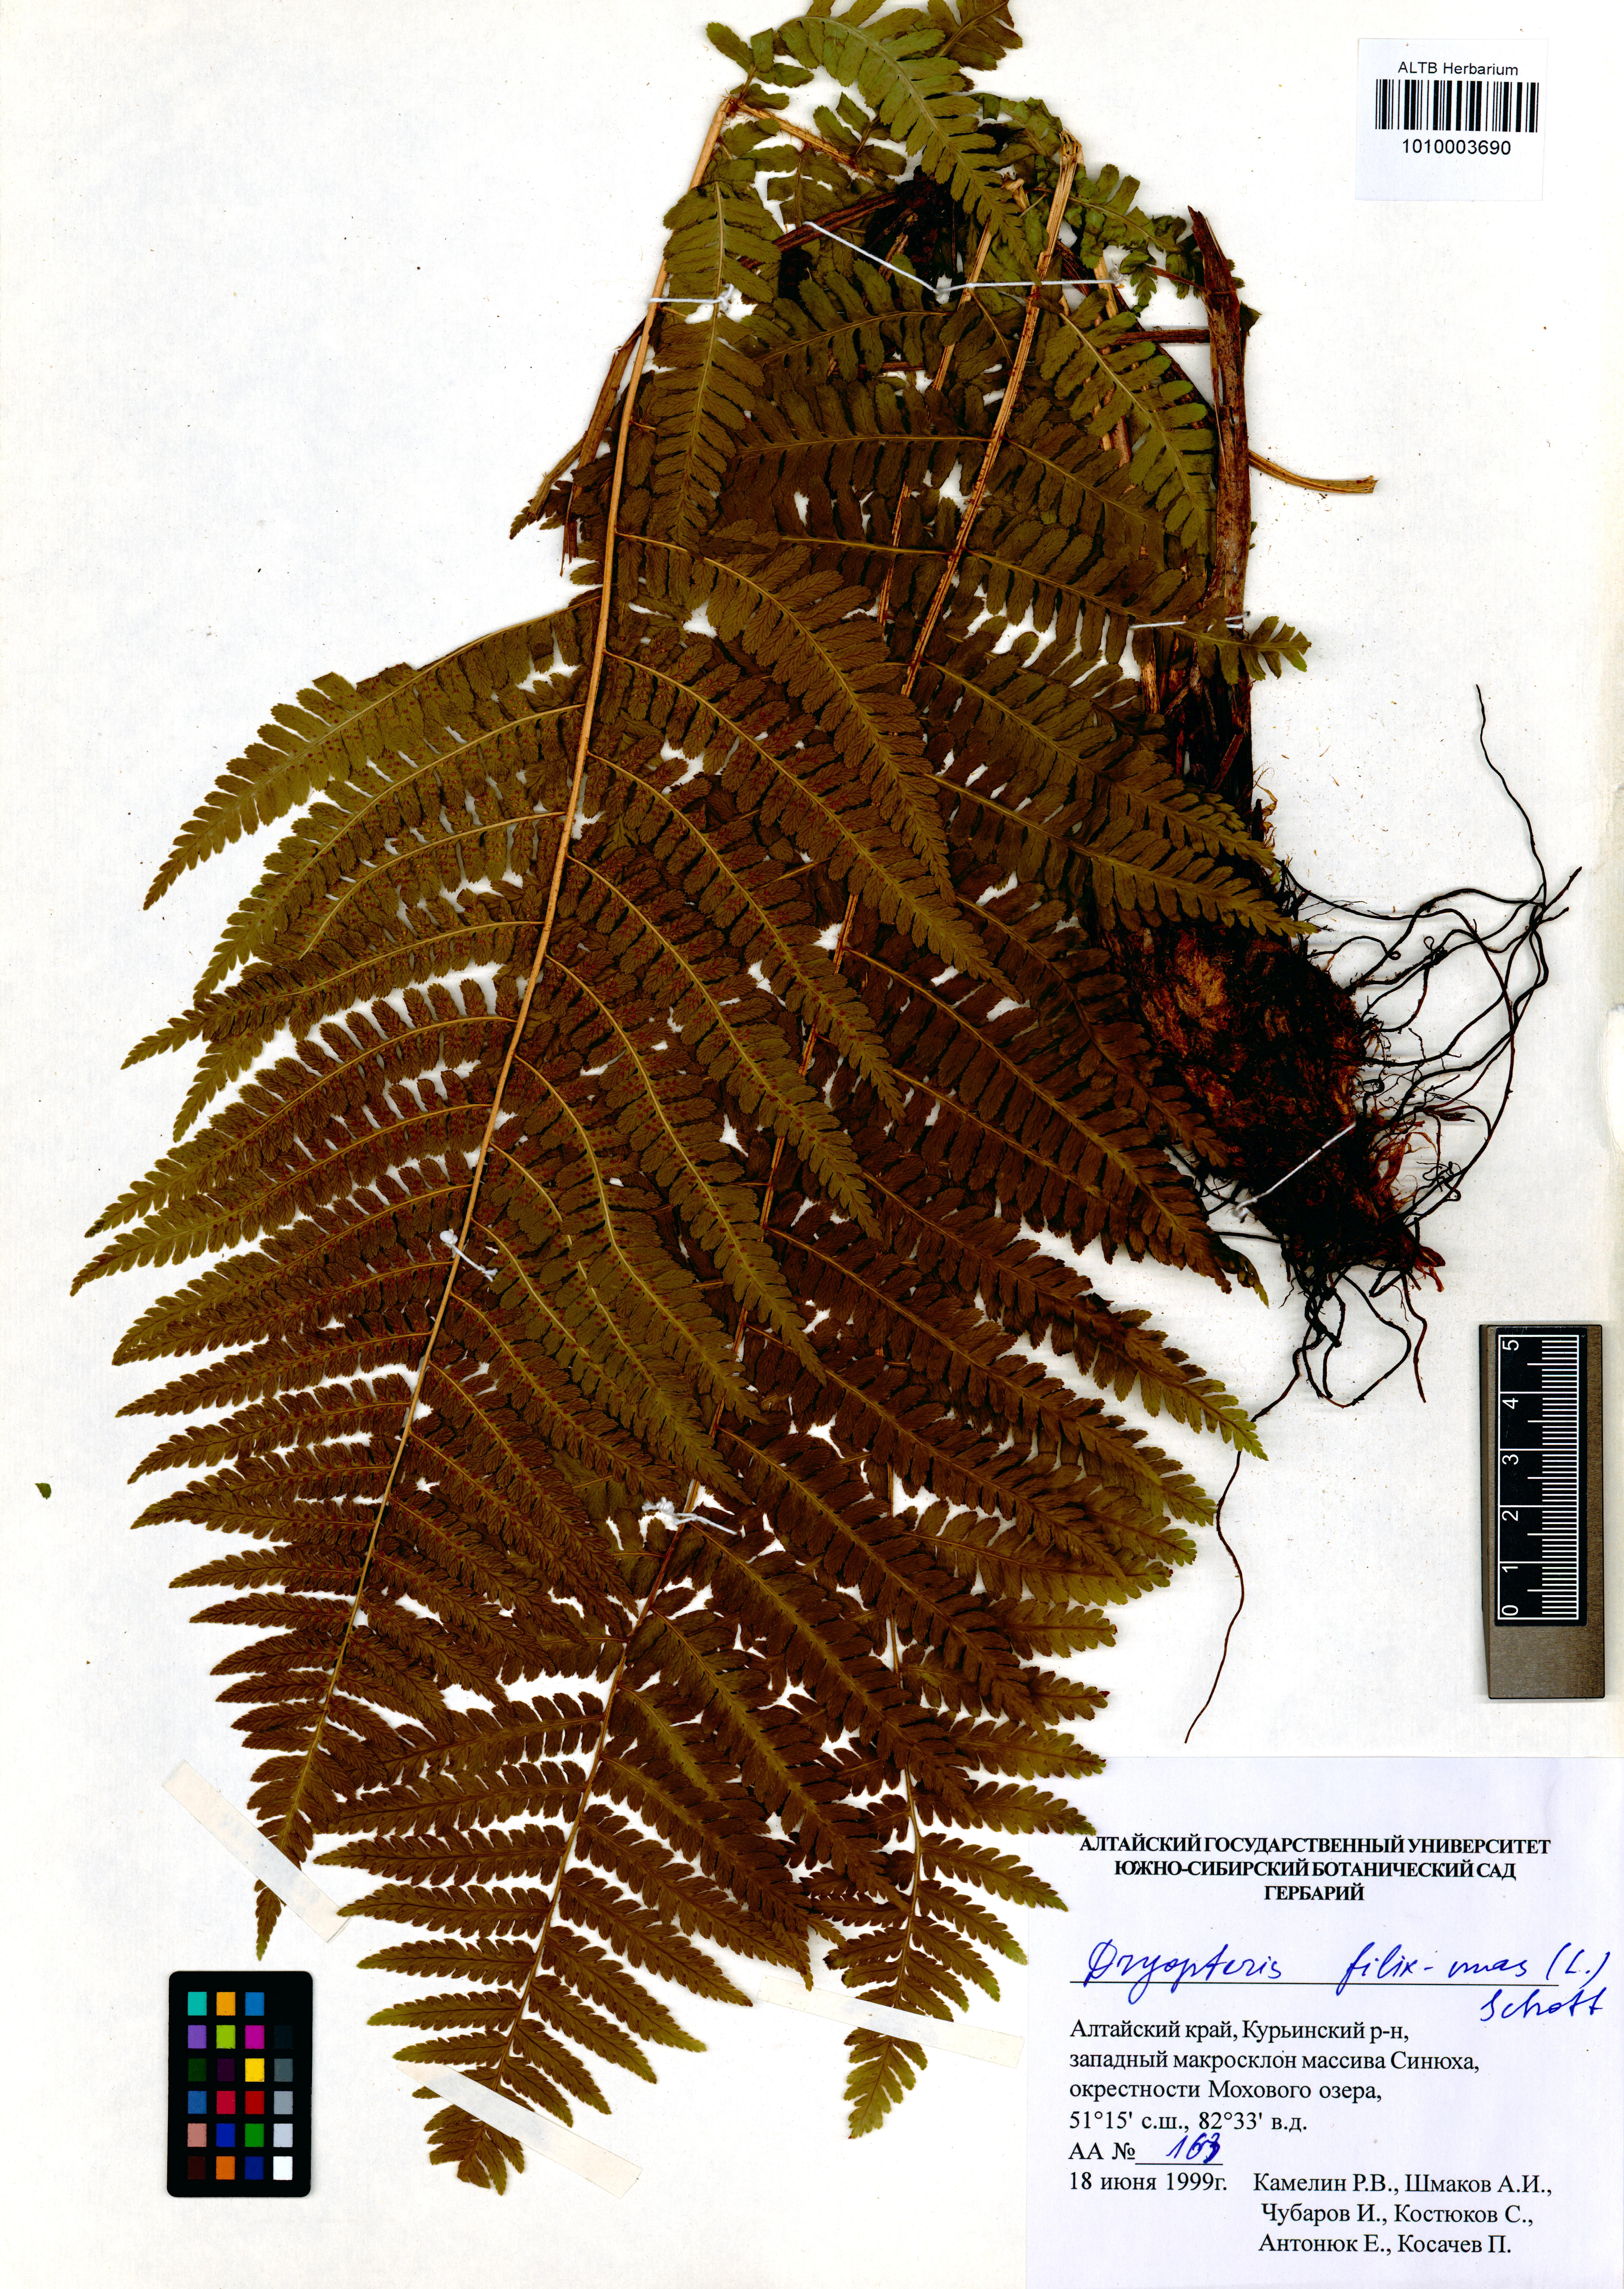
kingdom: Plantae
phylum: Tracheophyta
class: Polypodiopsida
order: Polypodiales
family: Dryopteridaceae
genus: Dryopteris
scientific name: Dryopteris filix-mas
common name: Male fern
